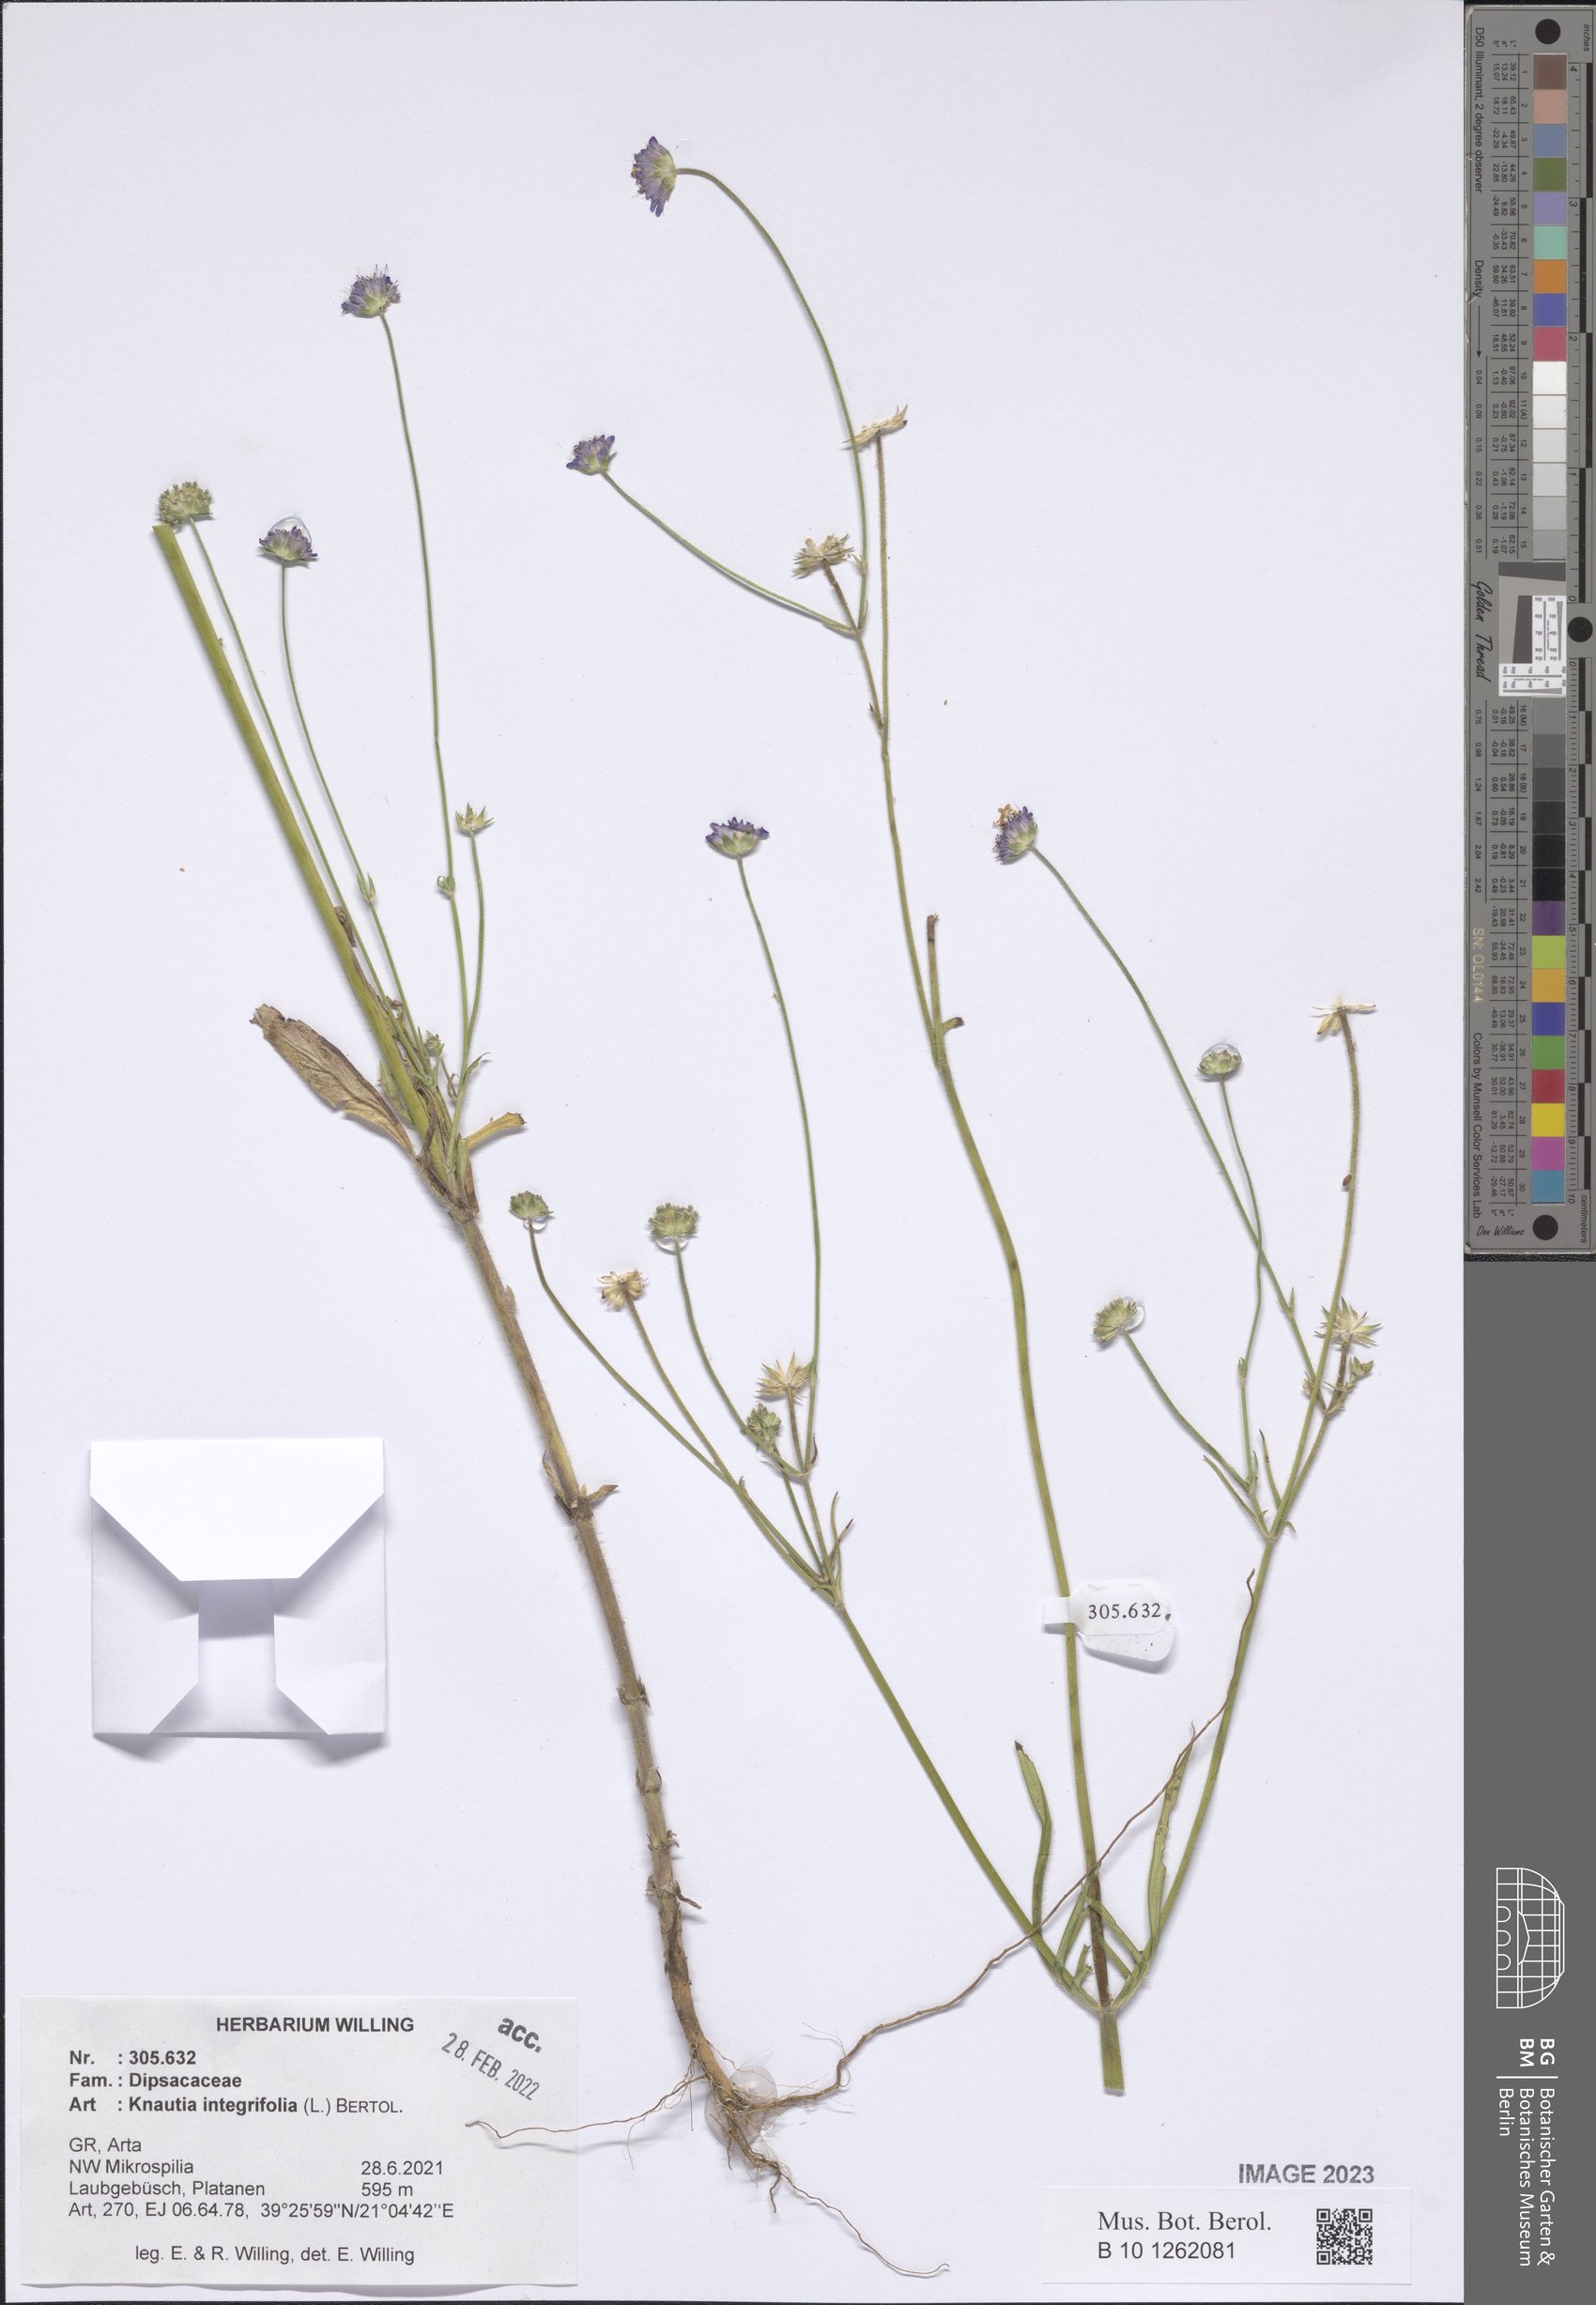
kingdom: Plantae
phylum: Tracheophyta
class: Magnoliopsida
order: Dipsacales
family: Caprifoliaceae
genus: Knautia
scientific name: Knautia integrifolia
